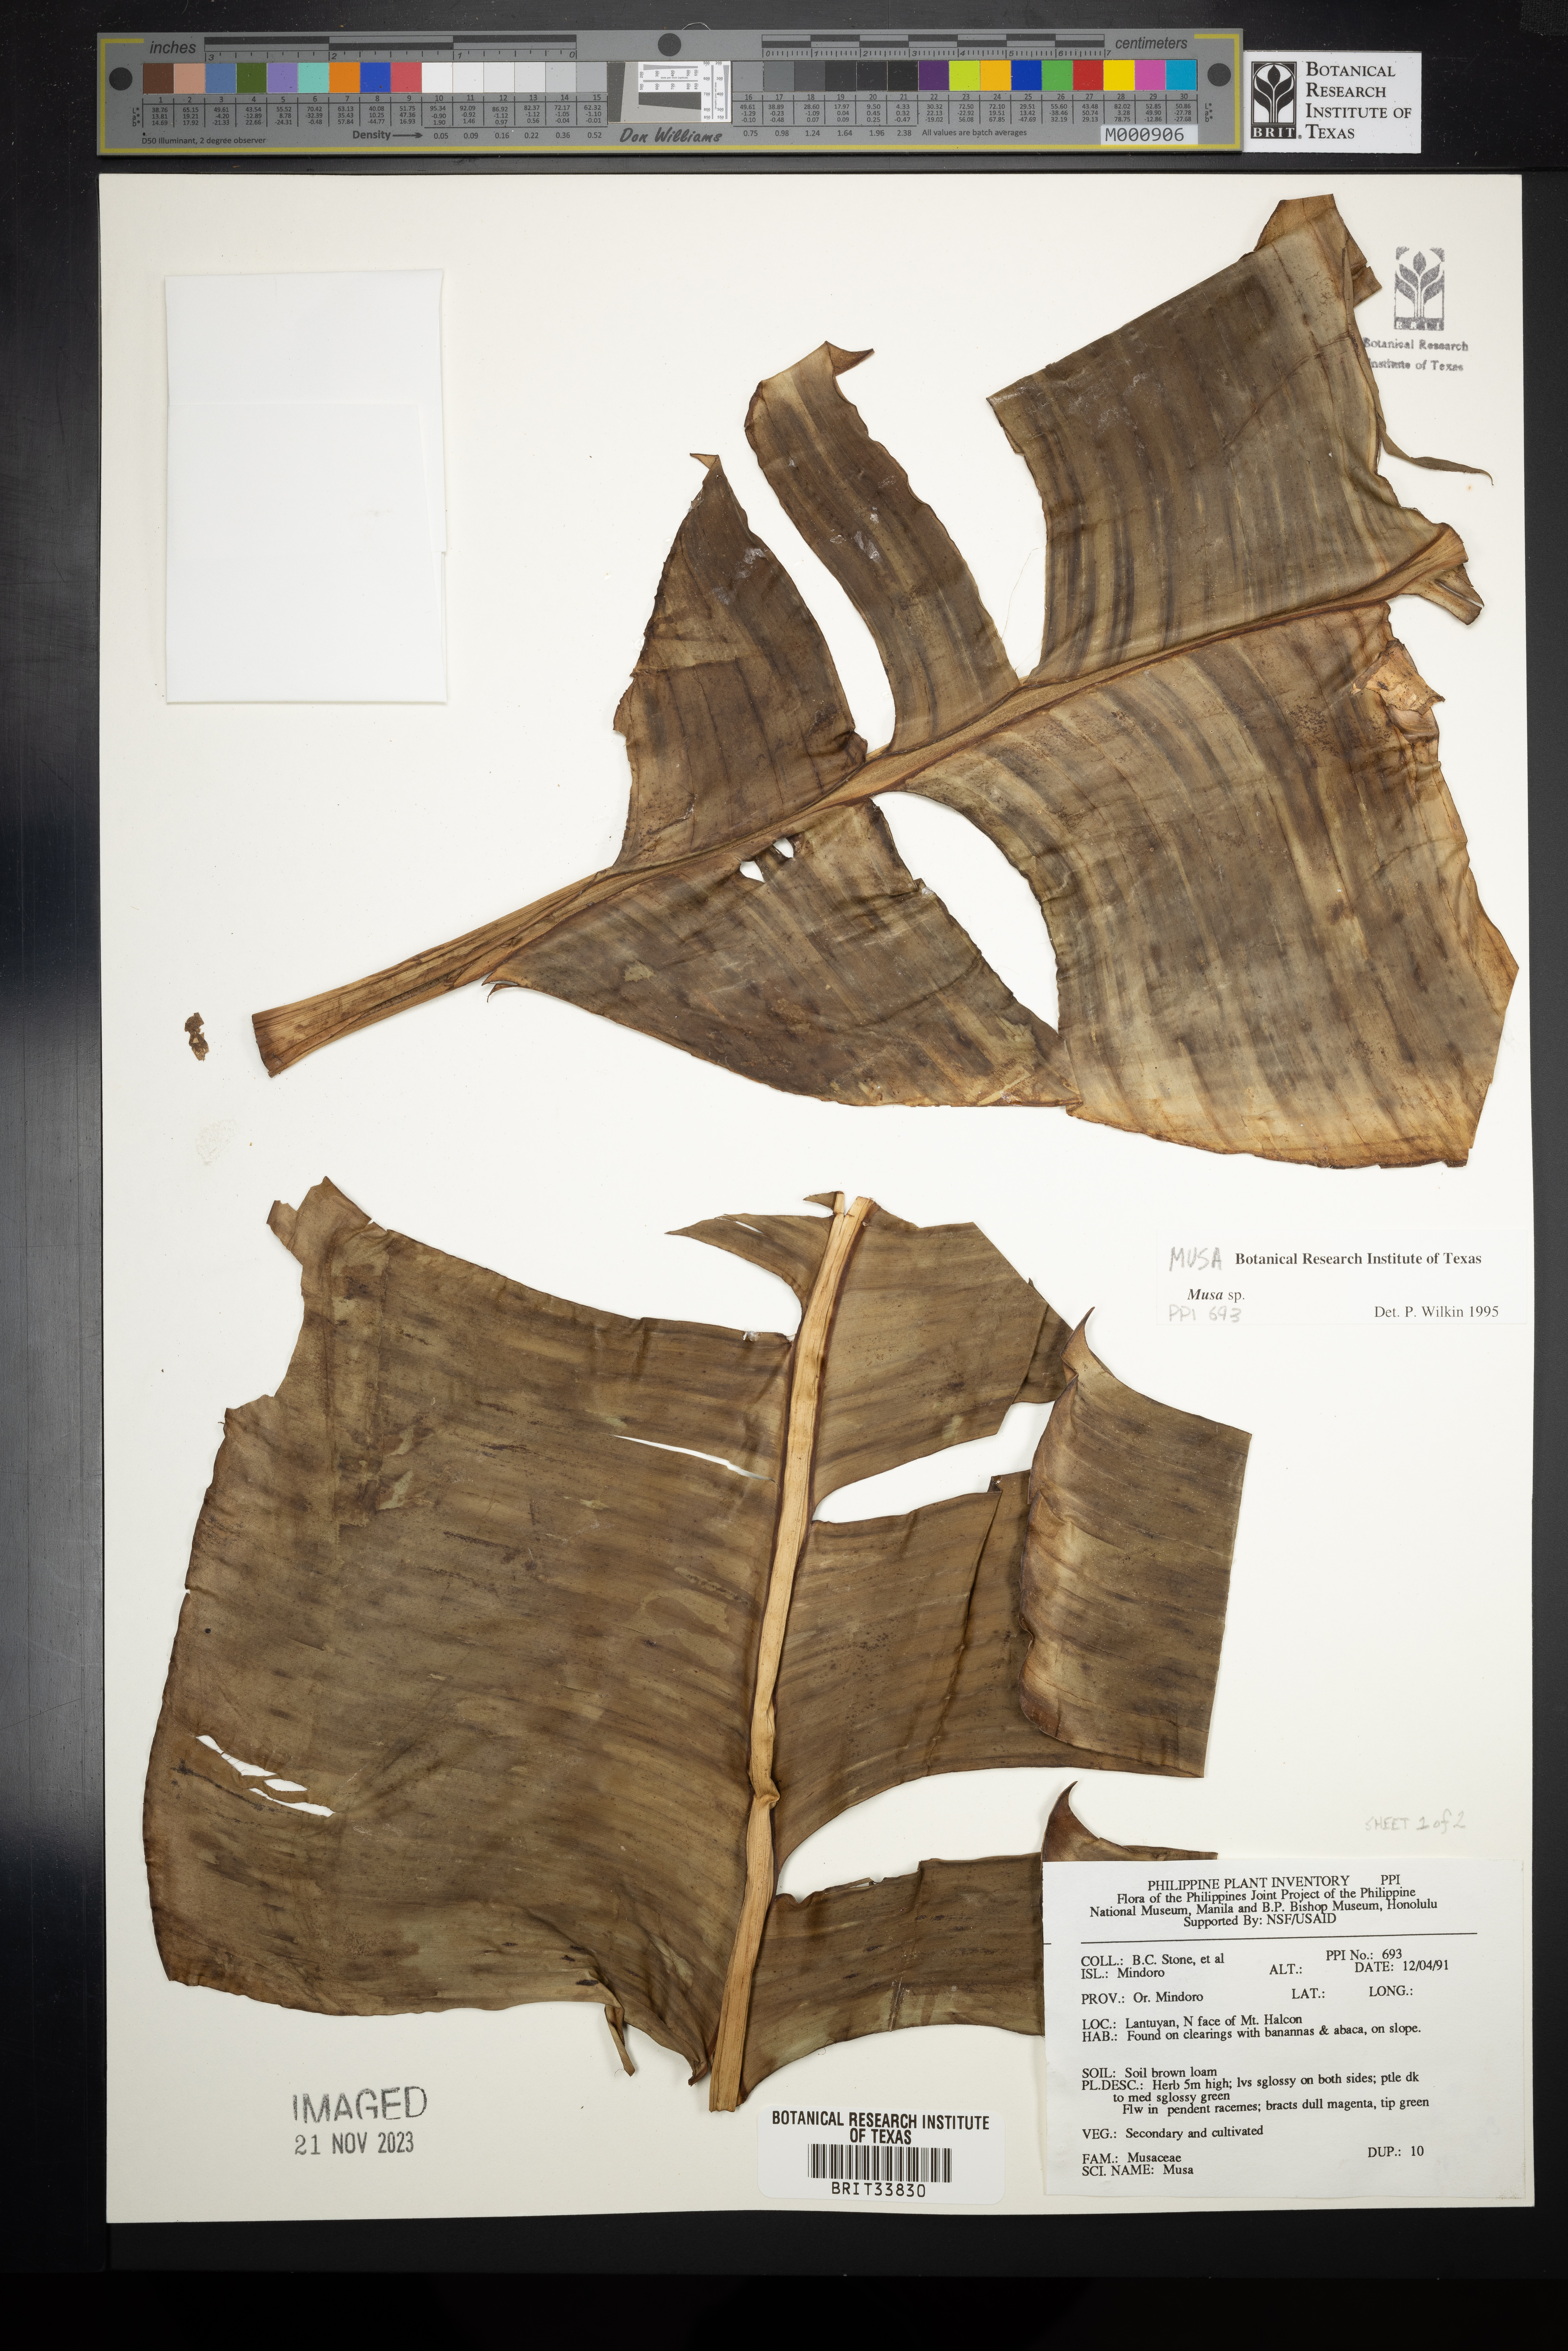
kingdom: Plantae
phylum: Tracheophyta
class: Liliopsida
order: Zingiberales
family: Musaceae
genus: Musa
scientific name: Musa
